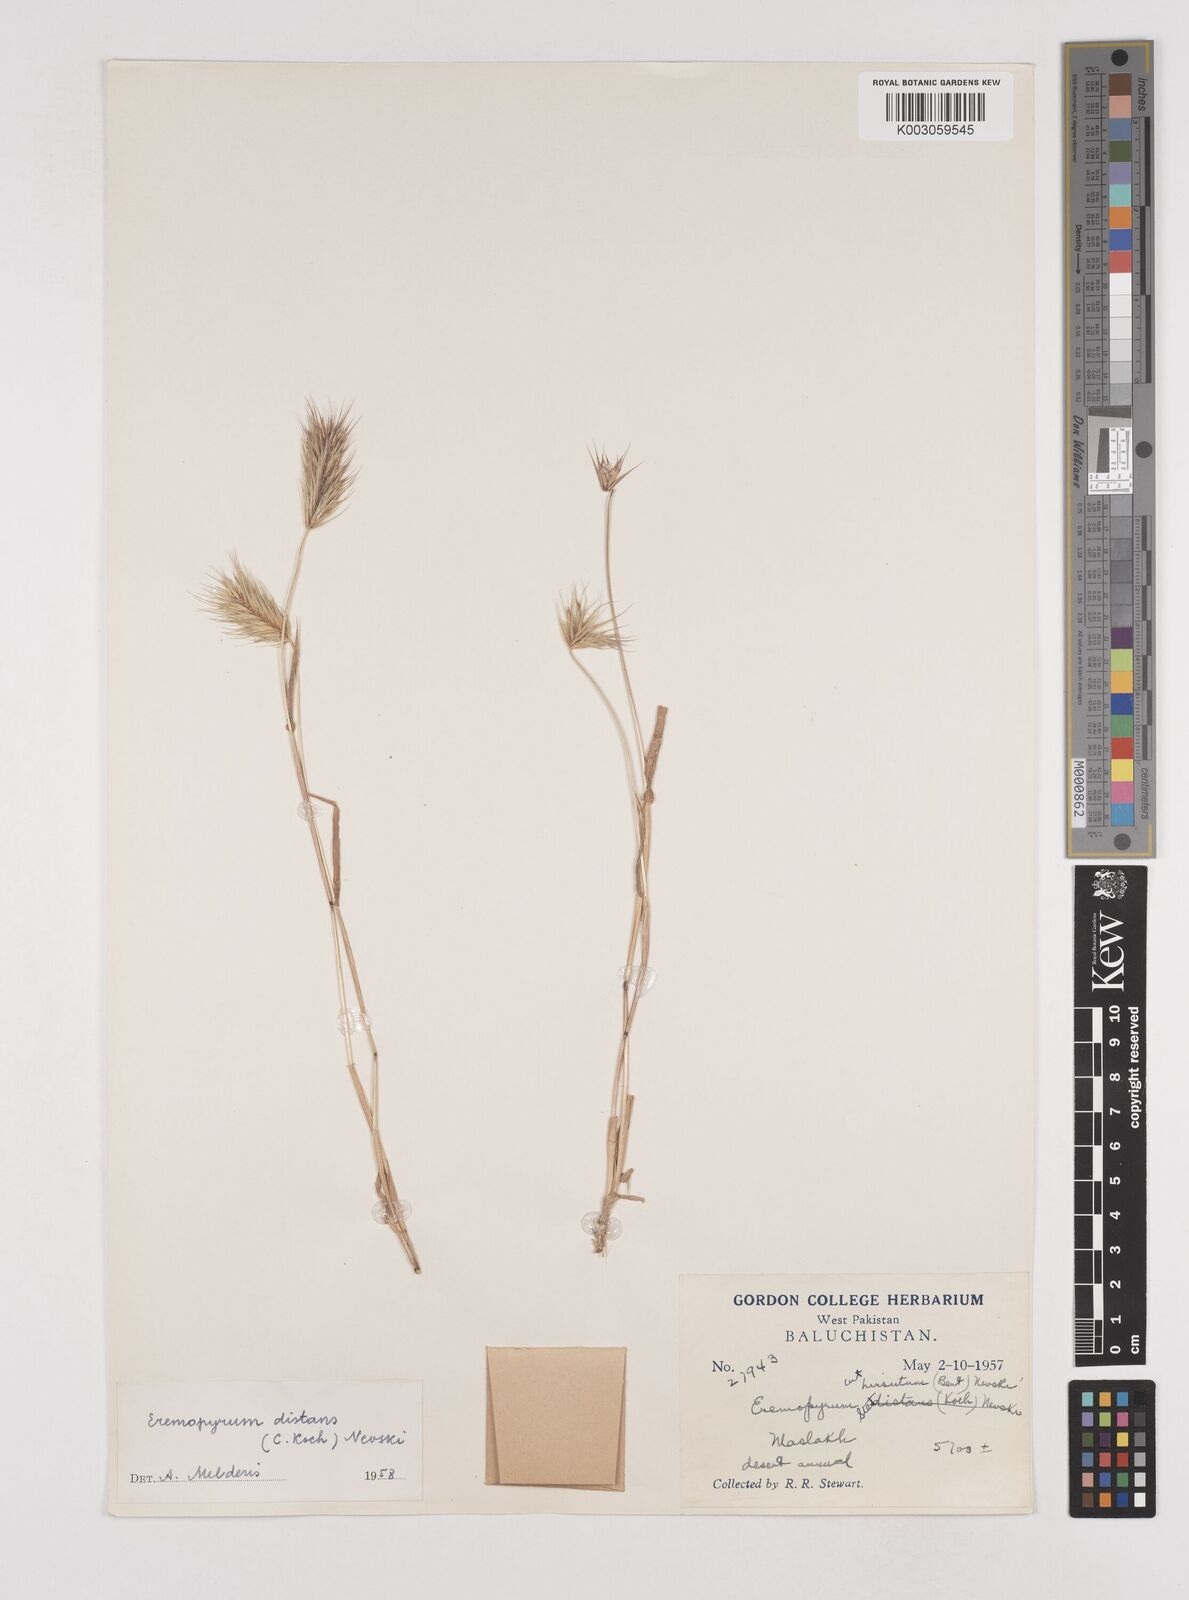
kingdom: Plantae
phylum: Tracheophyta
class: Liliopsida
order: Poales
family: Poaceae
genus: Eremopyrum
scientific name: Eremopyrum distans
